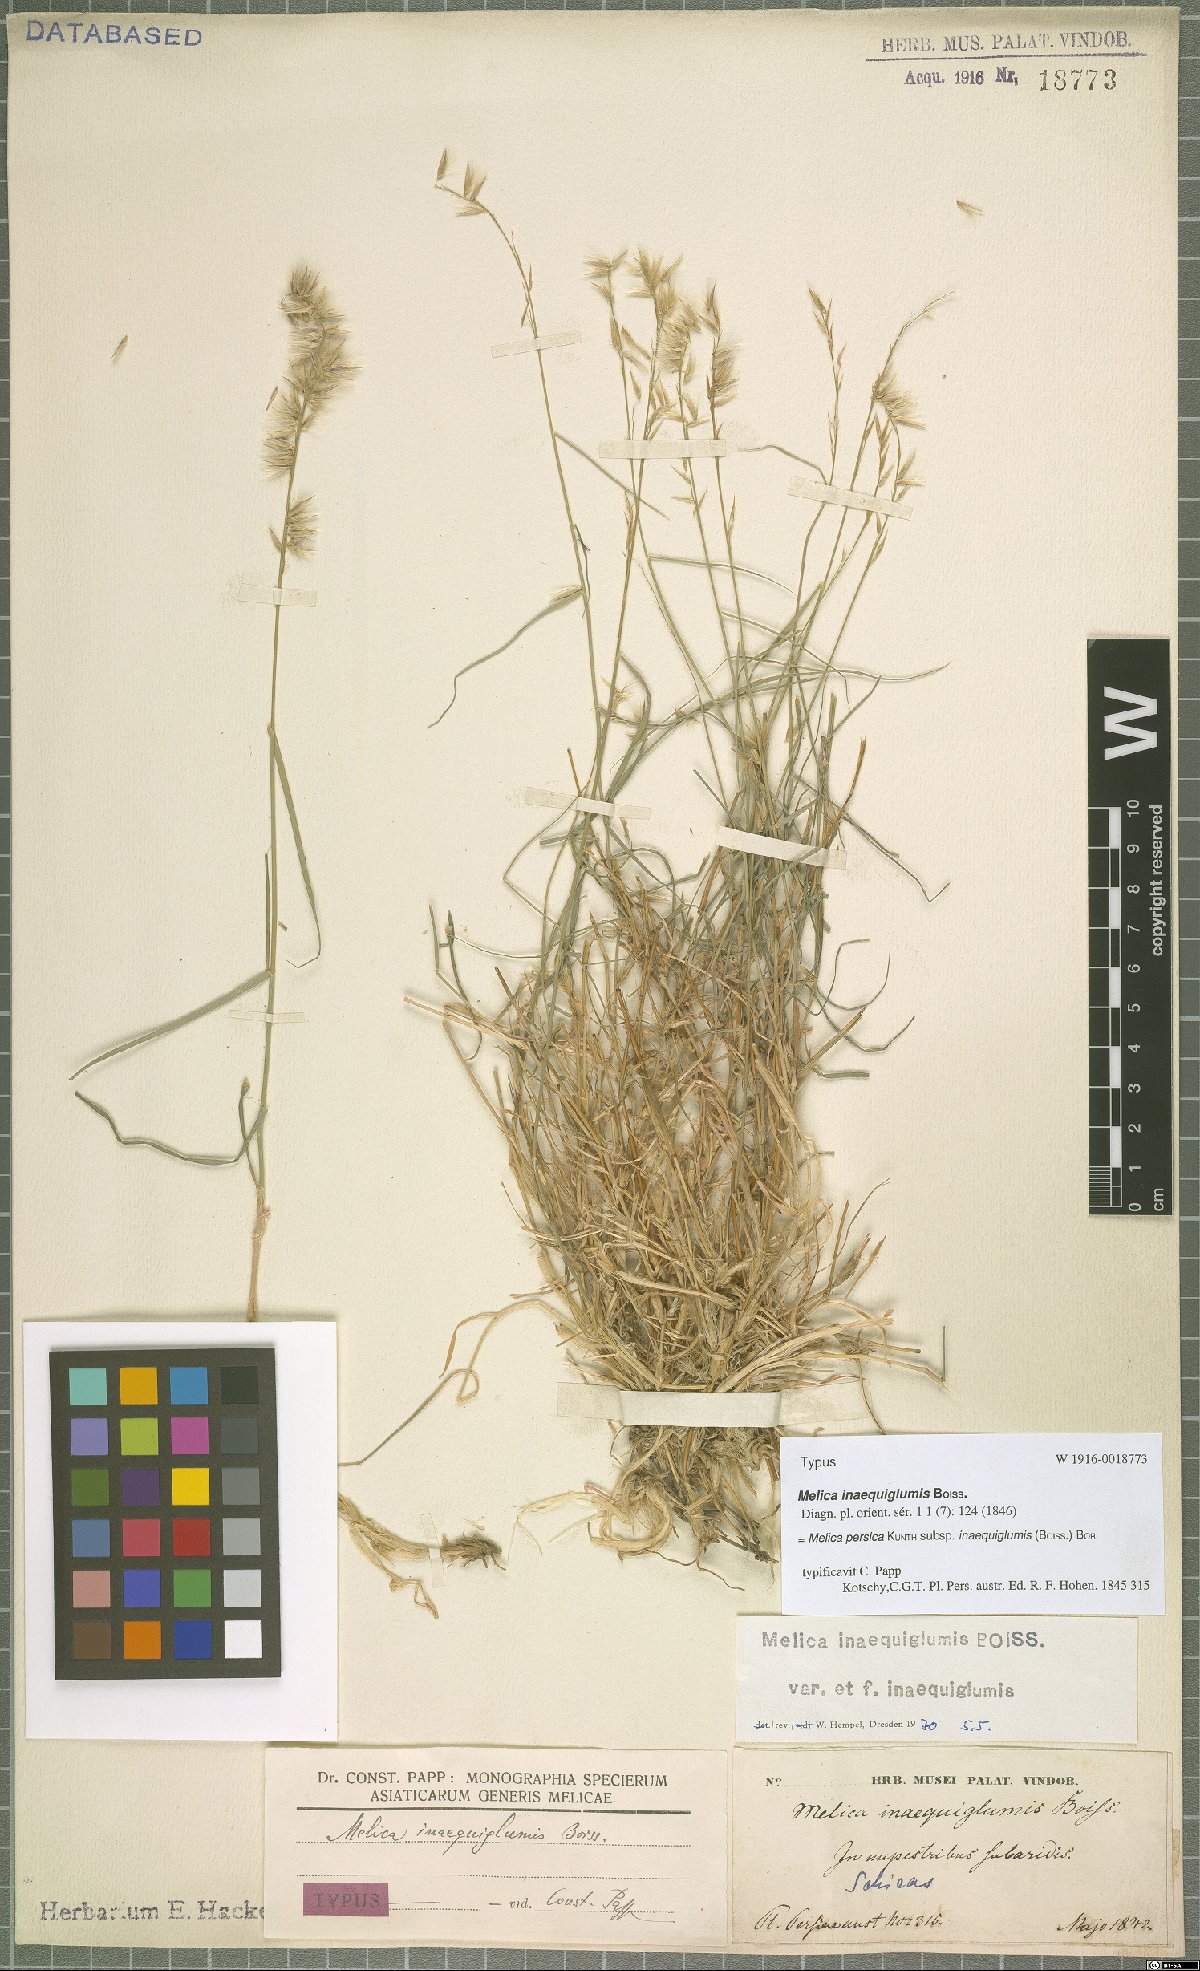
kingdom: Plantae
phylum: Tracheophyta
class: Liliopsida
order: Poales
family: Poaceae
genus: Melica
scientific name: Melica persica
